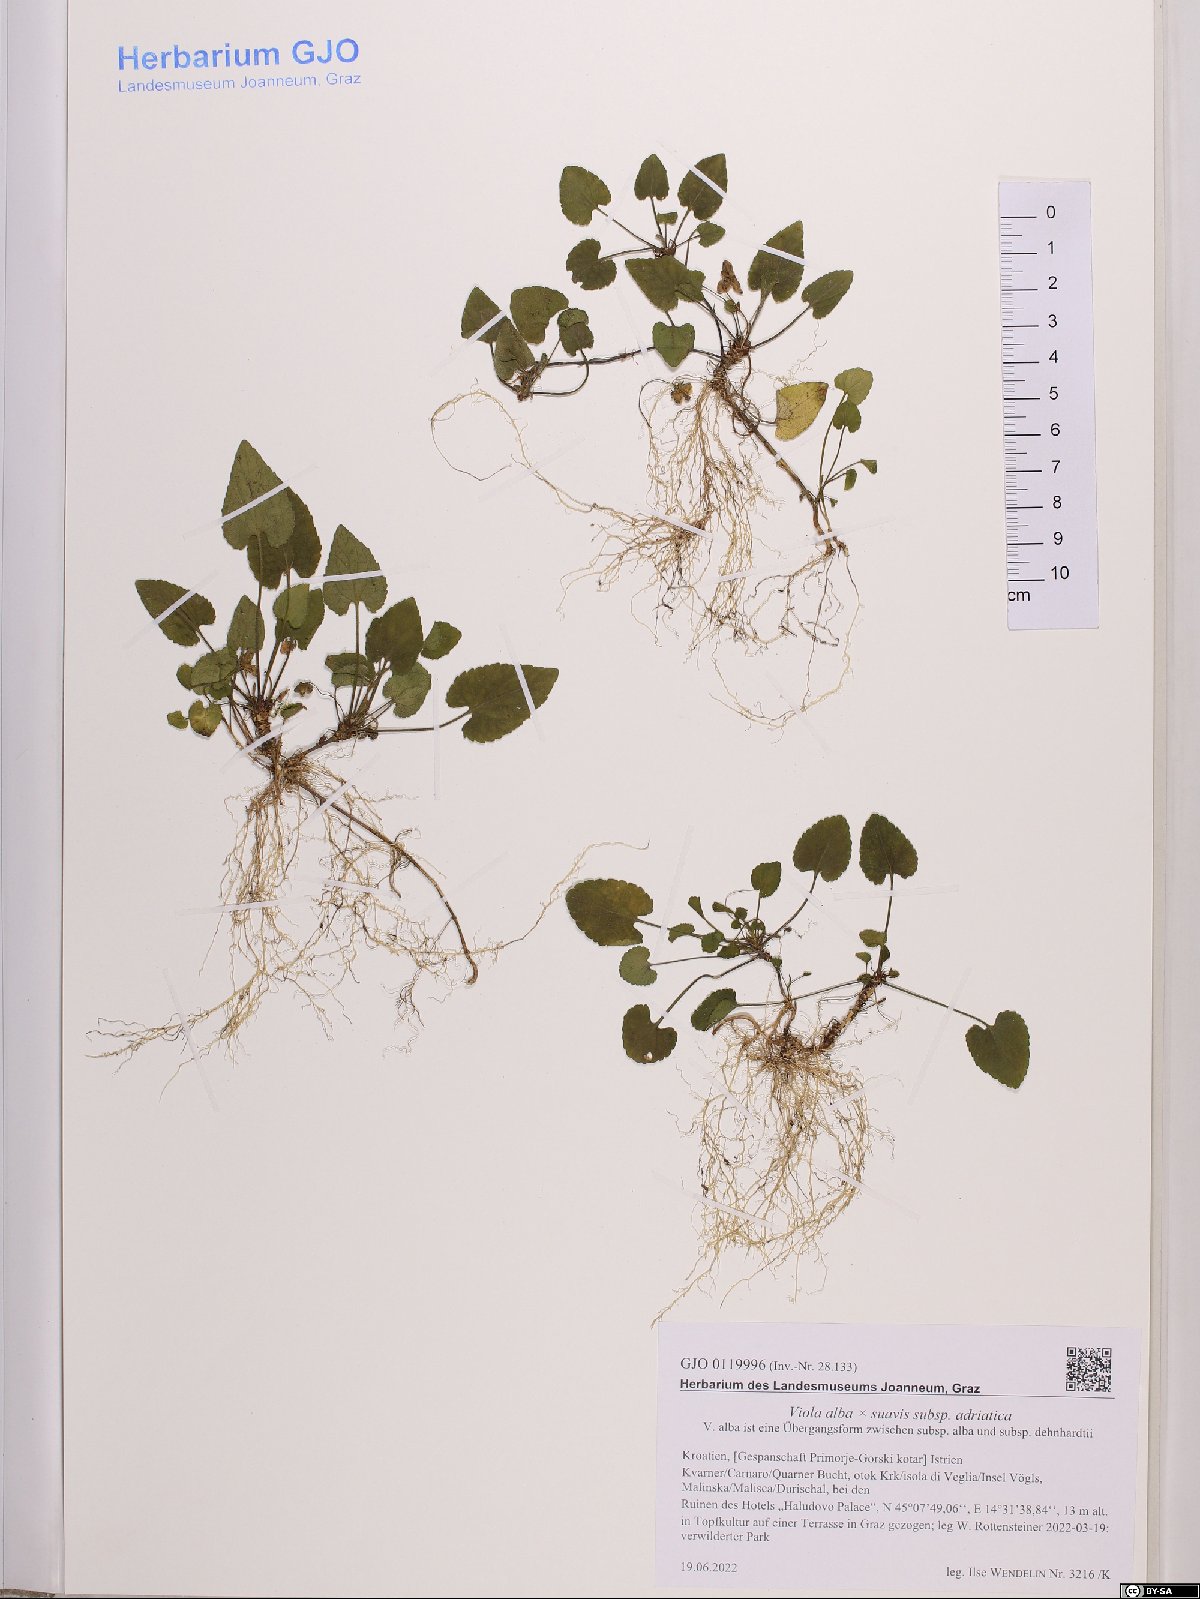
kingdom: Plantae
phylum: Tracheophyta
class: Magnoliopsida
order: Malpighiales
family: Violaceae
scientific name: Violaceae
